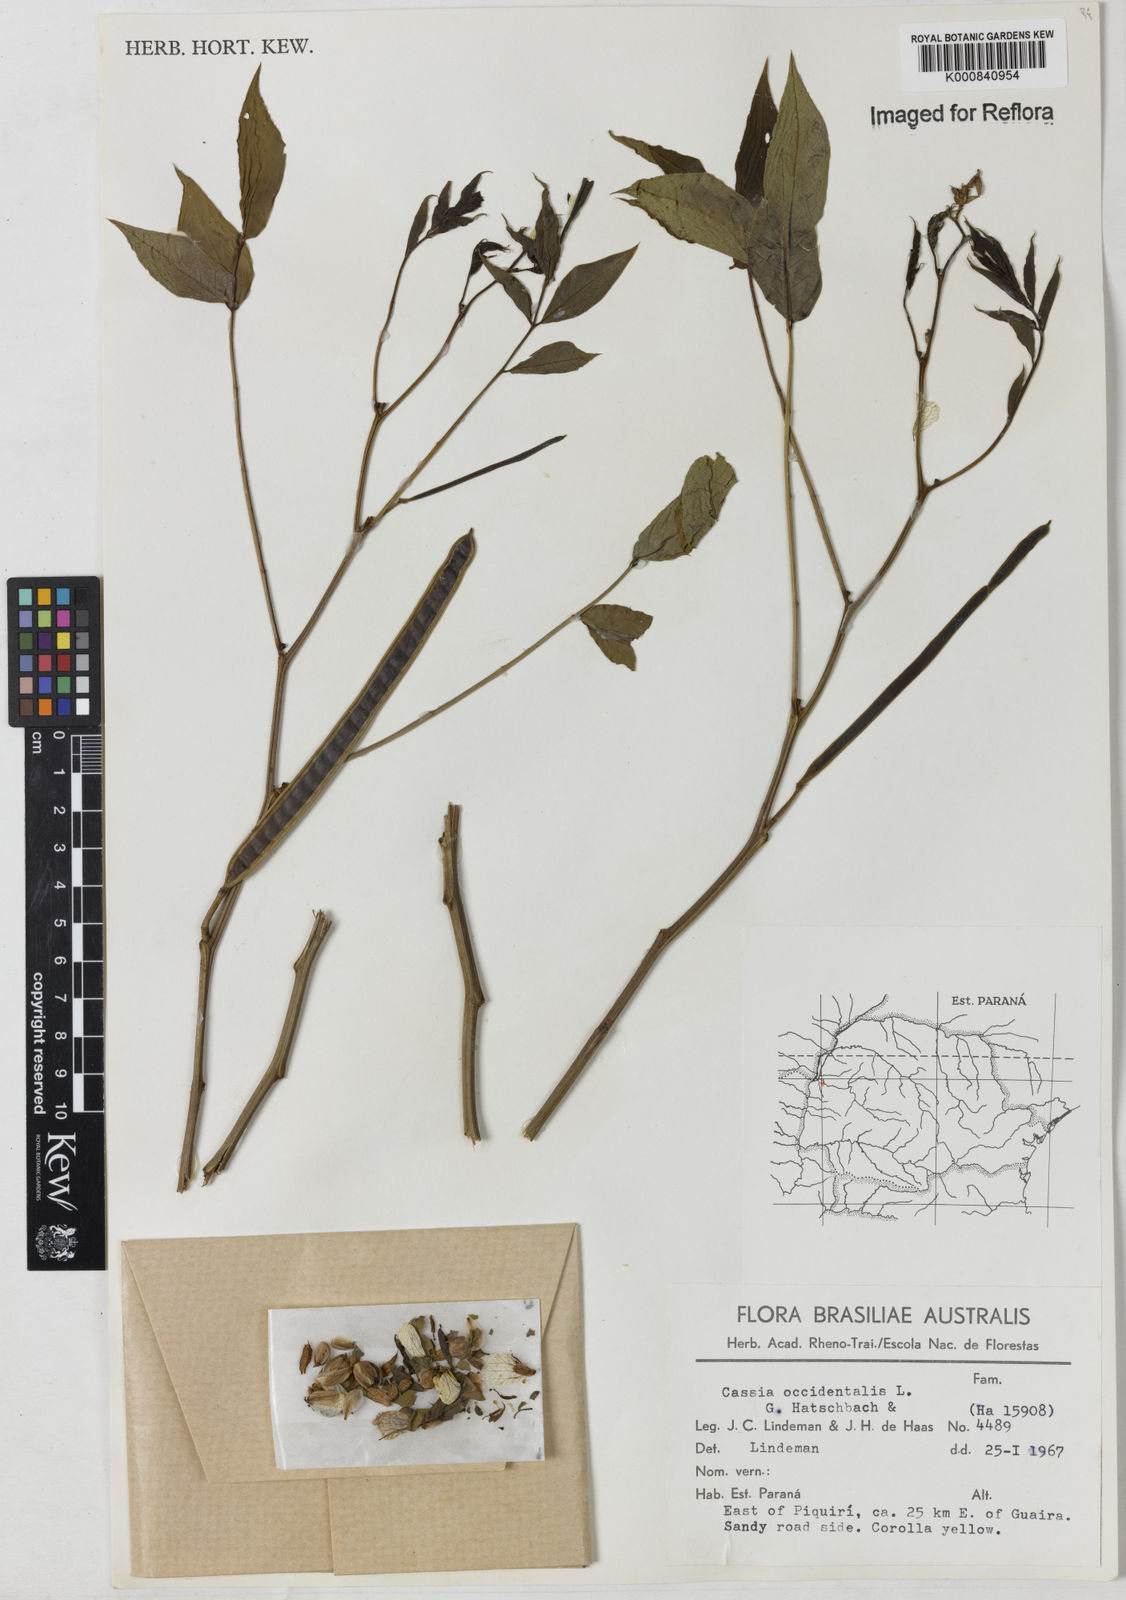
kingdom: Plantae
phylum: Tracheophyta
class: Magnoliopsida
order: Fabales
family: Fabaceae
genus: Senna
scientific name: Senna occidentalis
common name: Septicweed
